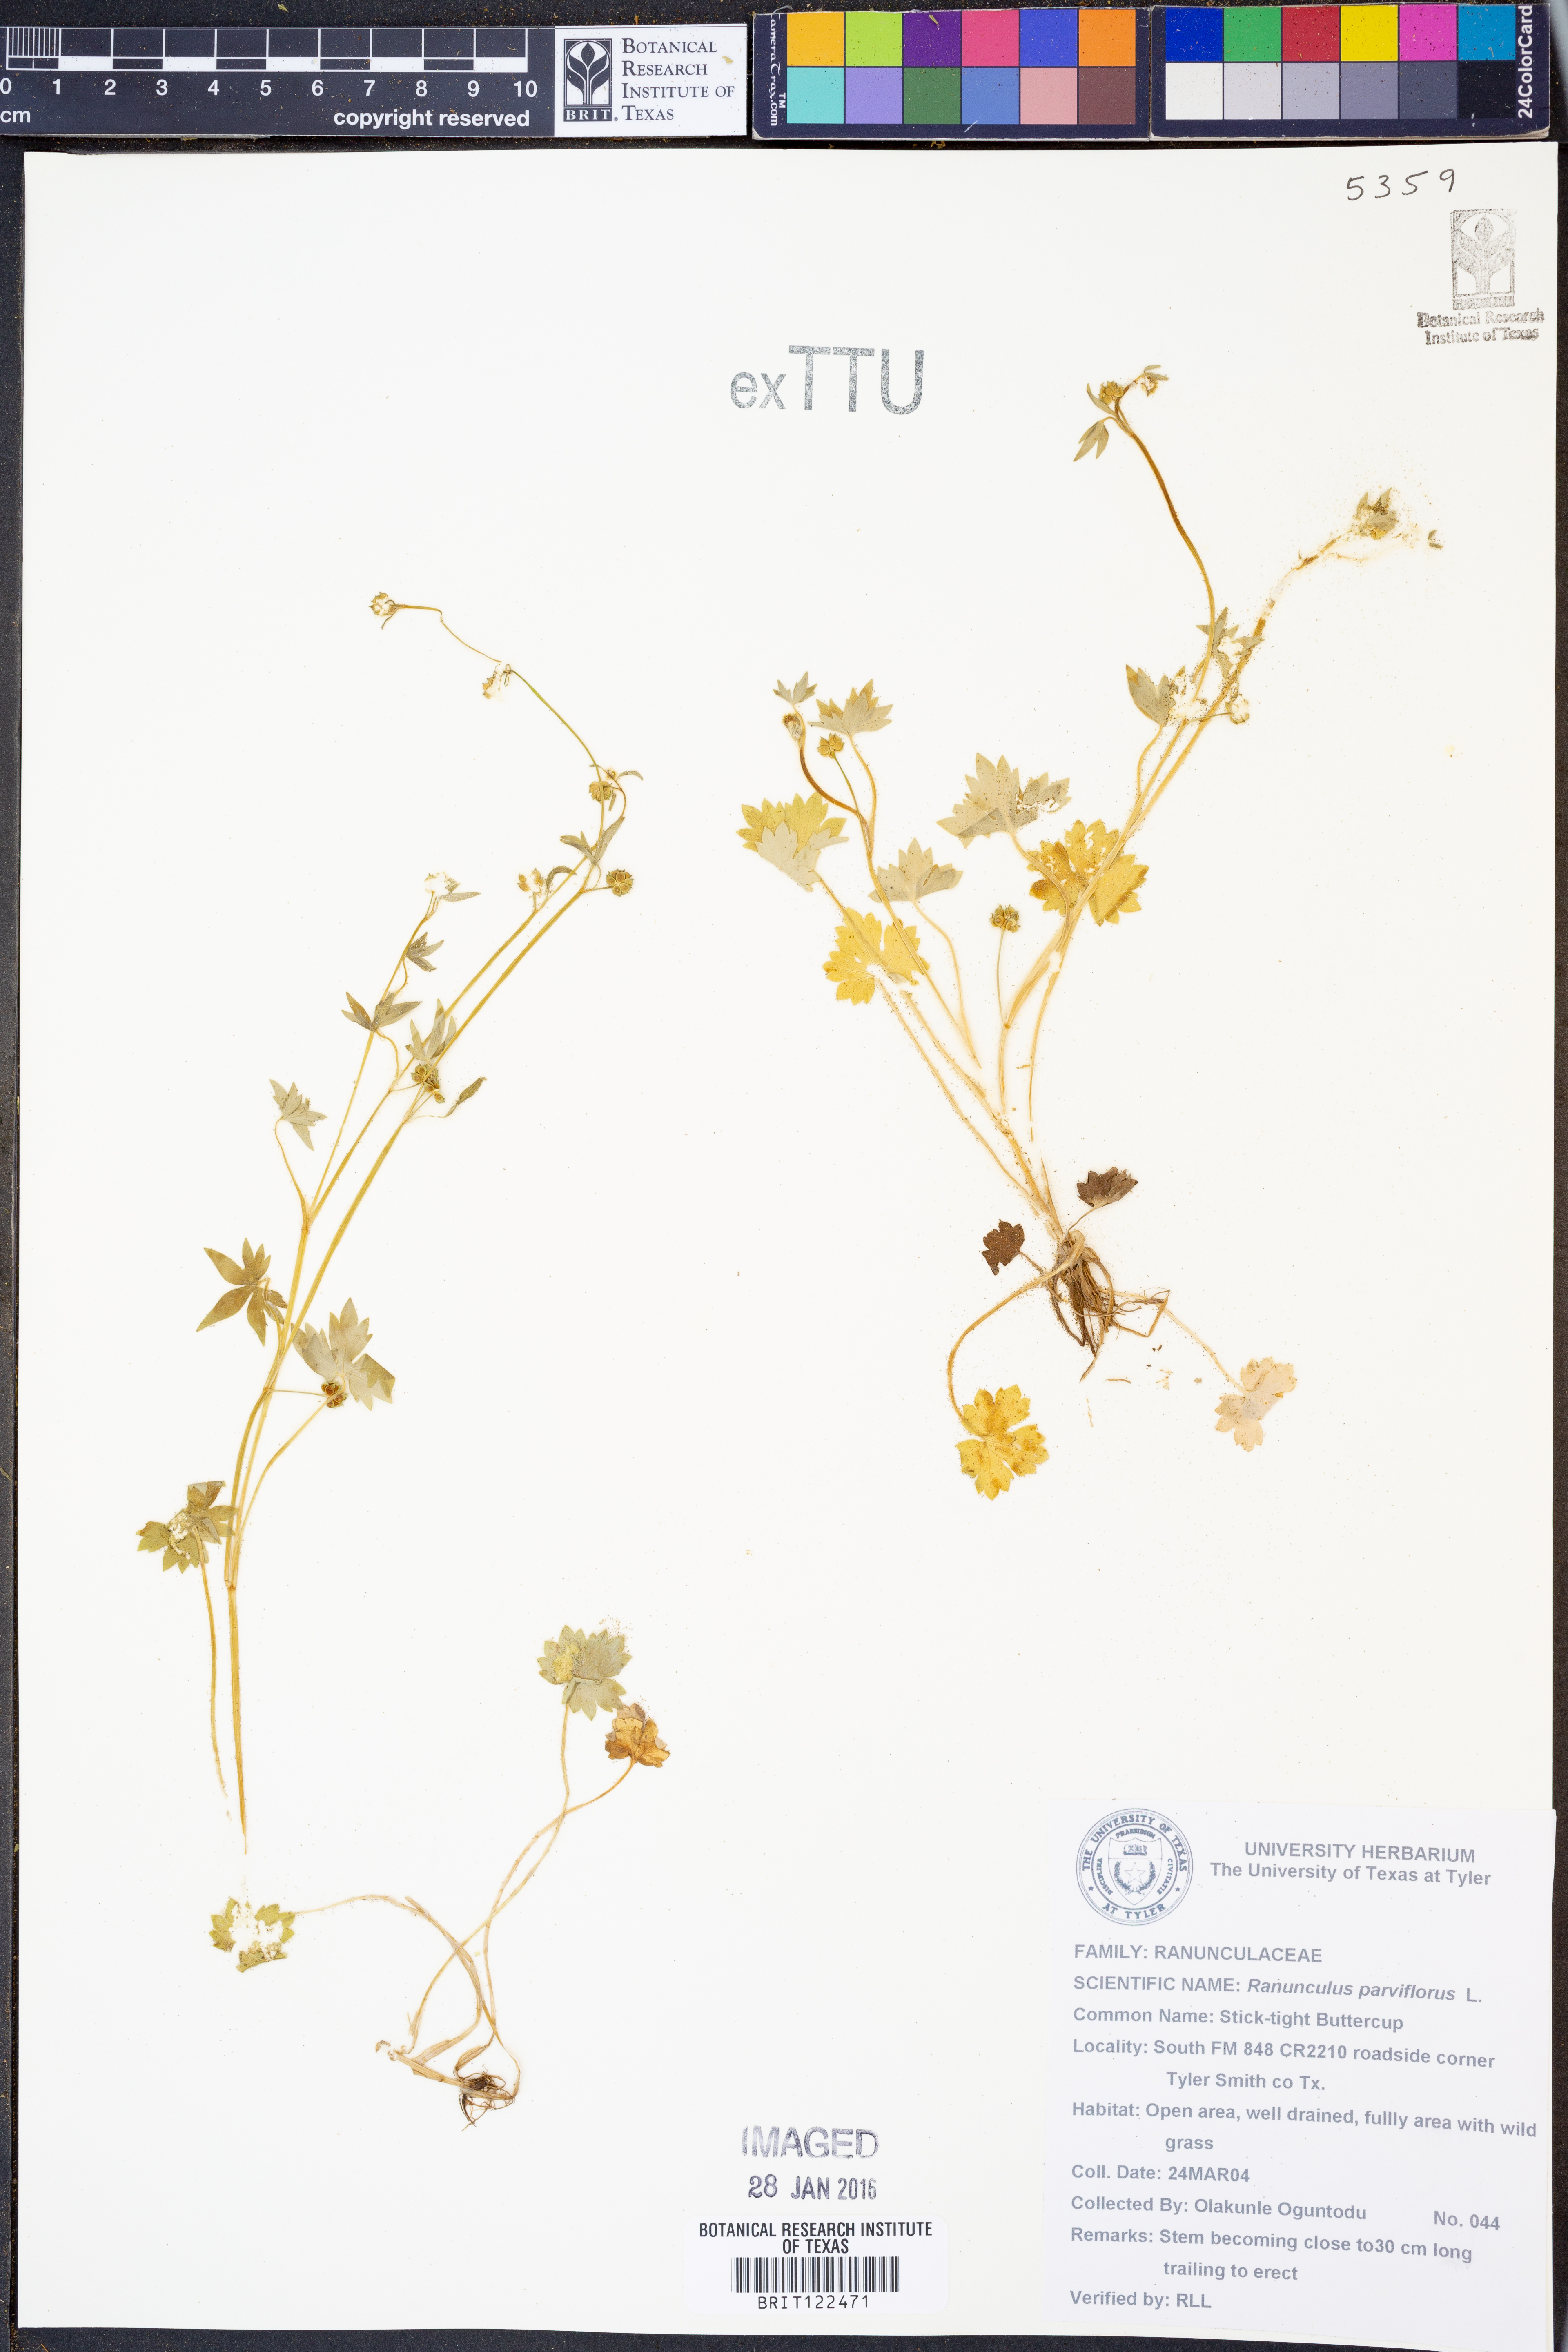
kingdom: Plantae
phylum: Tracheophyta
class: Magnoliopsida
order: Ranunculales
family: Ranunculaceae
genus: Ranunculus
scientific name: Ranunculus parviflorus
